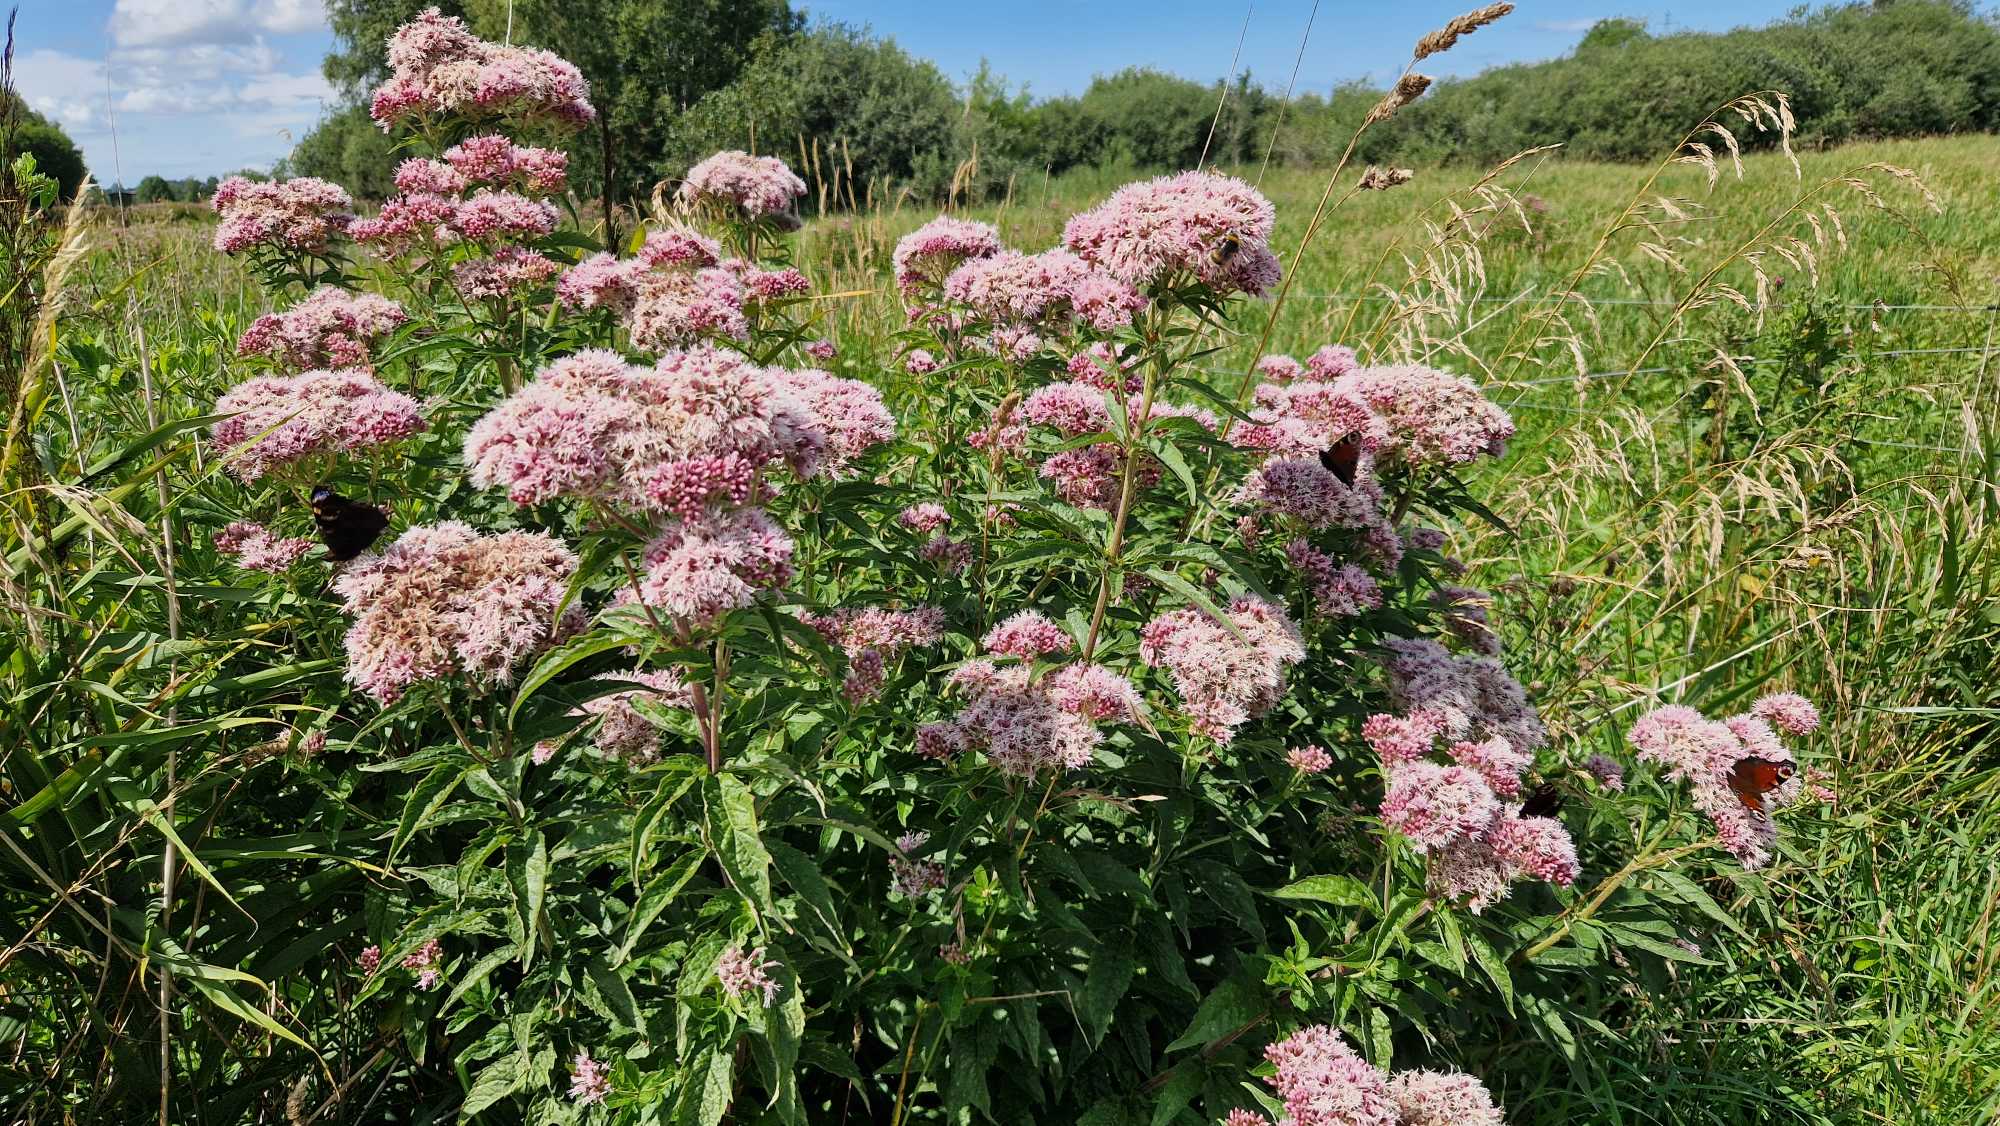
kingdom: Plantae
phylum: Tracheophyta
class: Magnoliopsida
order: Asterales
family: Asteraceae
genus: Eupatorium
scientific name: Eupatorium cannabinum
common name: Hjortetrøst
